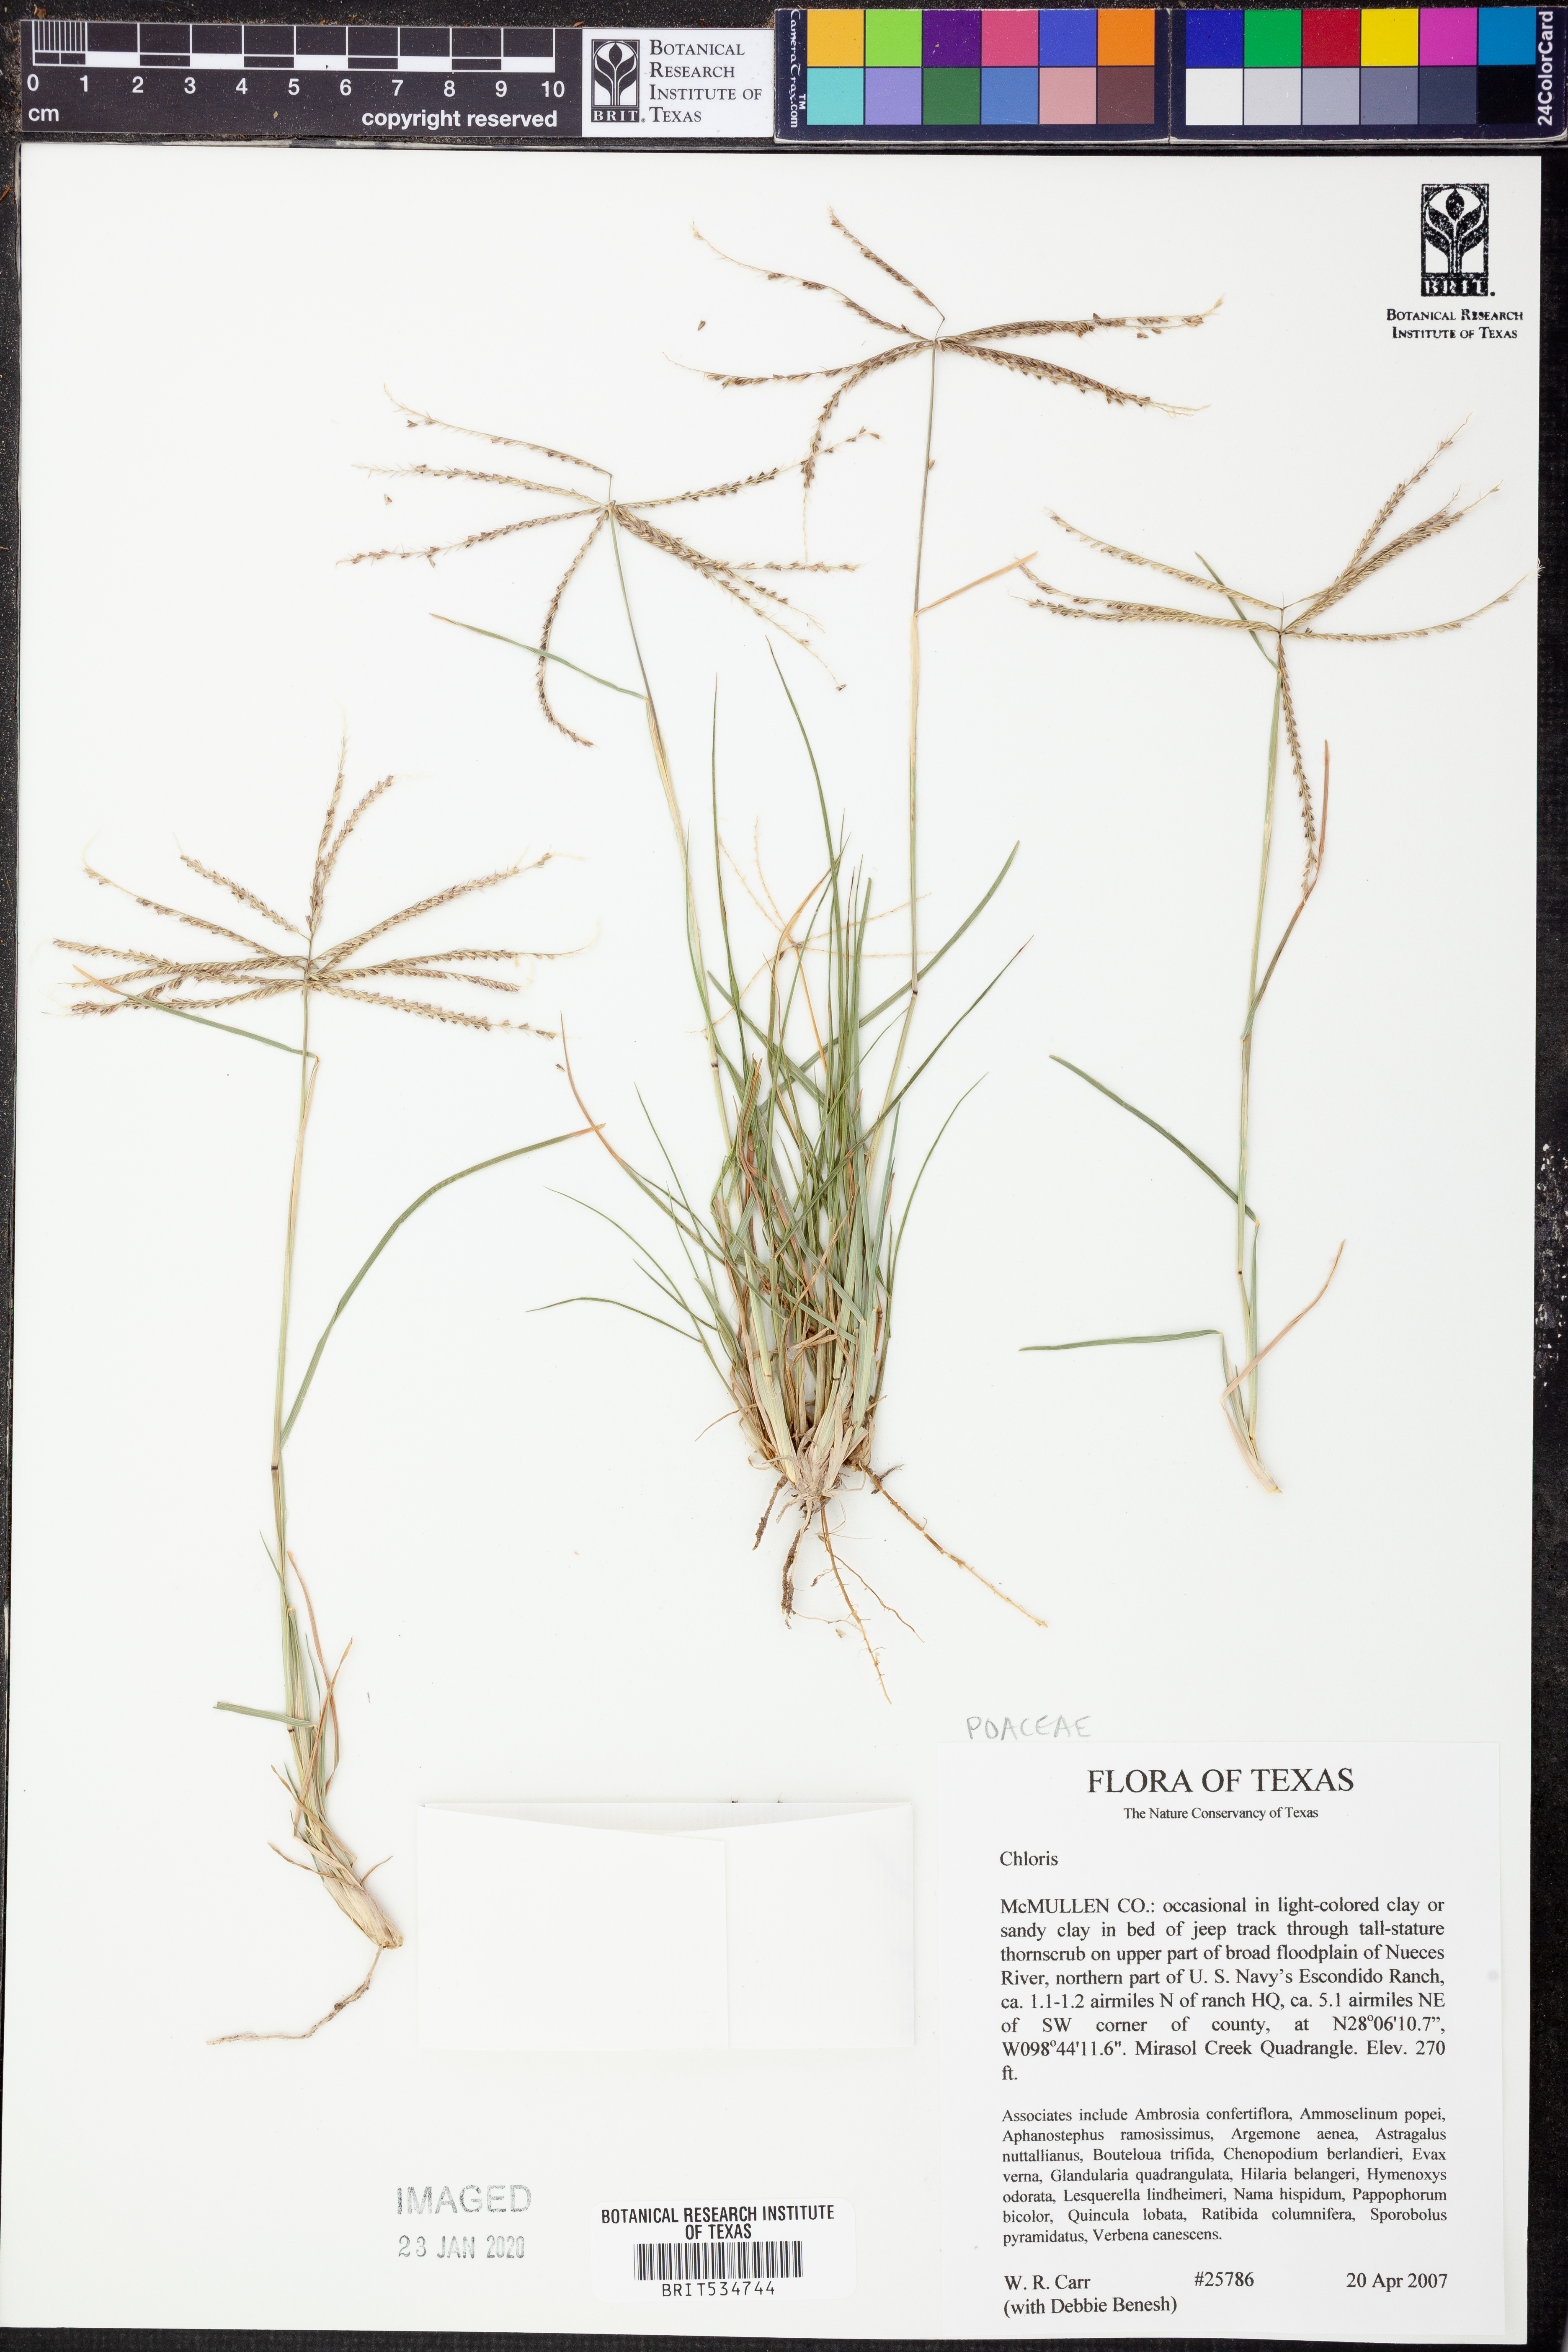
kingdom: Plantae
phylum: Tracheophyta
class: Liliopsida
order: Poales
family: Poaceae
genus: Chloris
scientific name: Chloris
